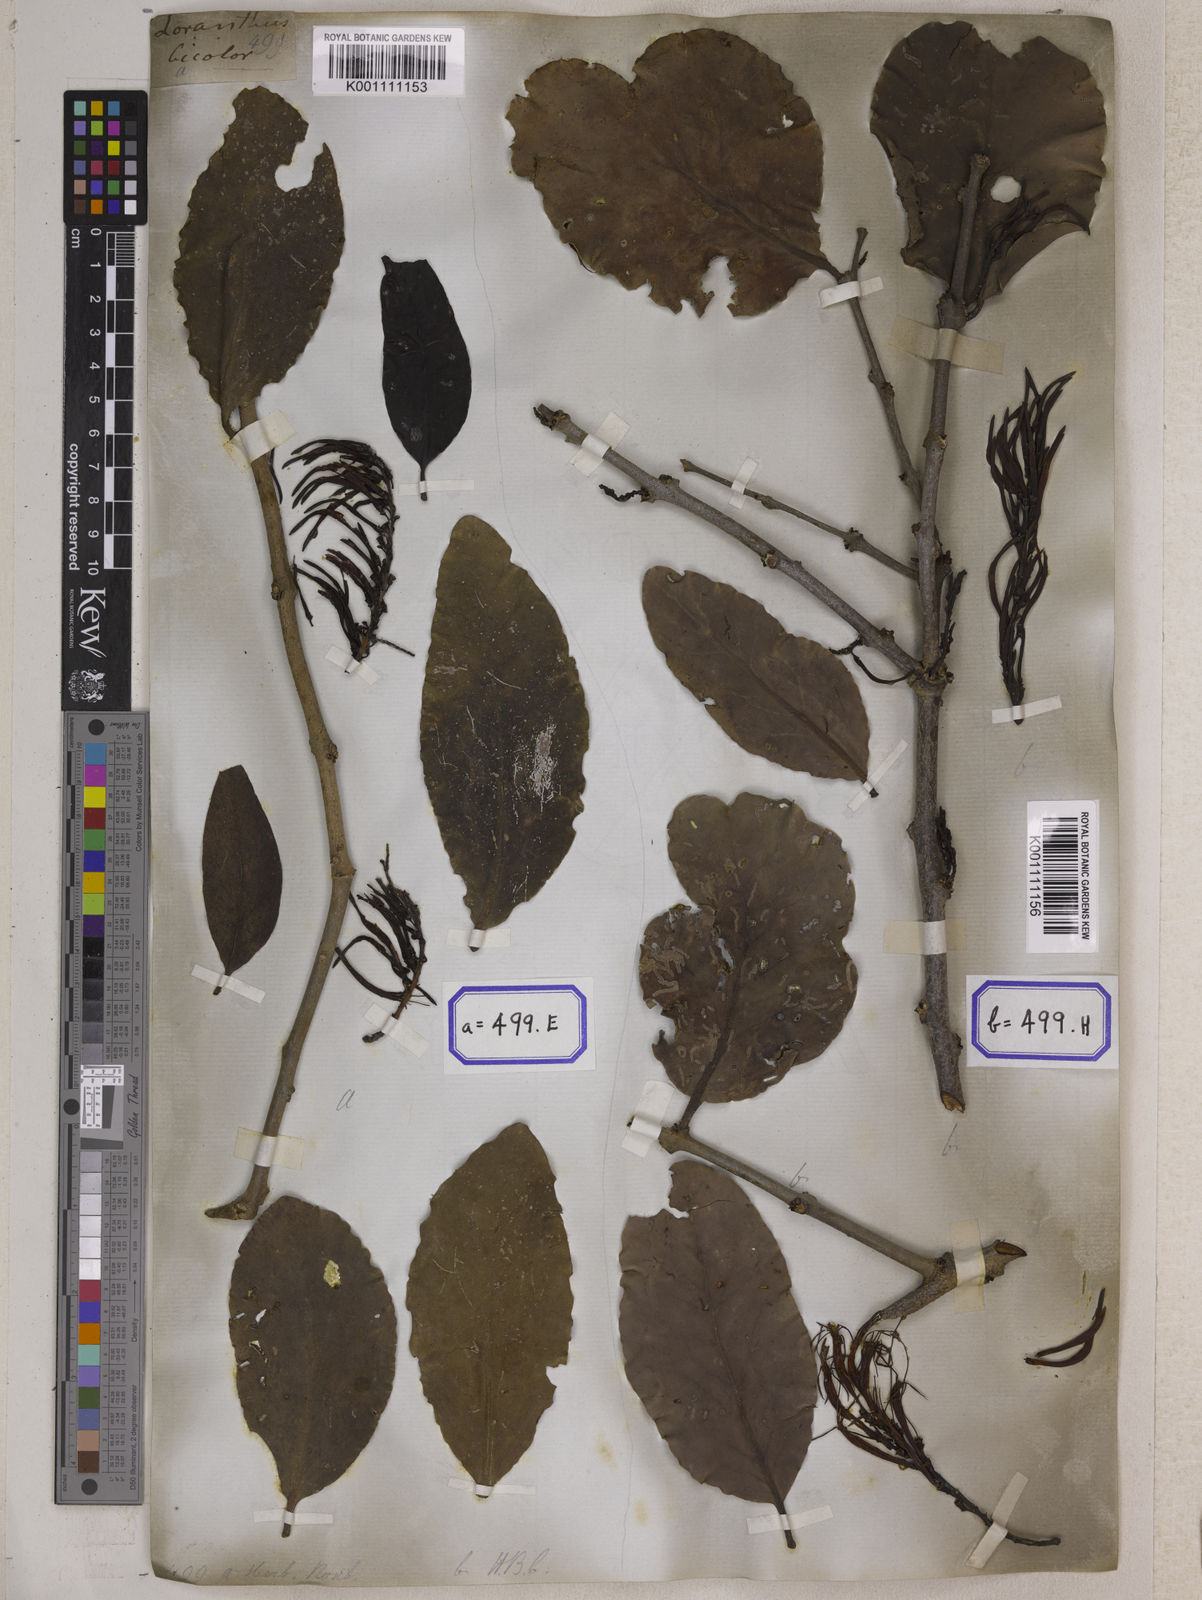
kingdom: Plantae
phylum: Tracheophyta
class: Magnoliopsida
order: Santalales
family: Loranthaceae
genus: Dendrophthoe
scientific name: Dendrophthoe falcata
